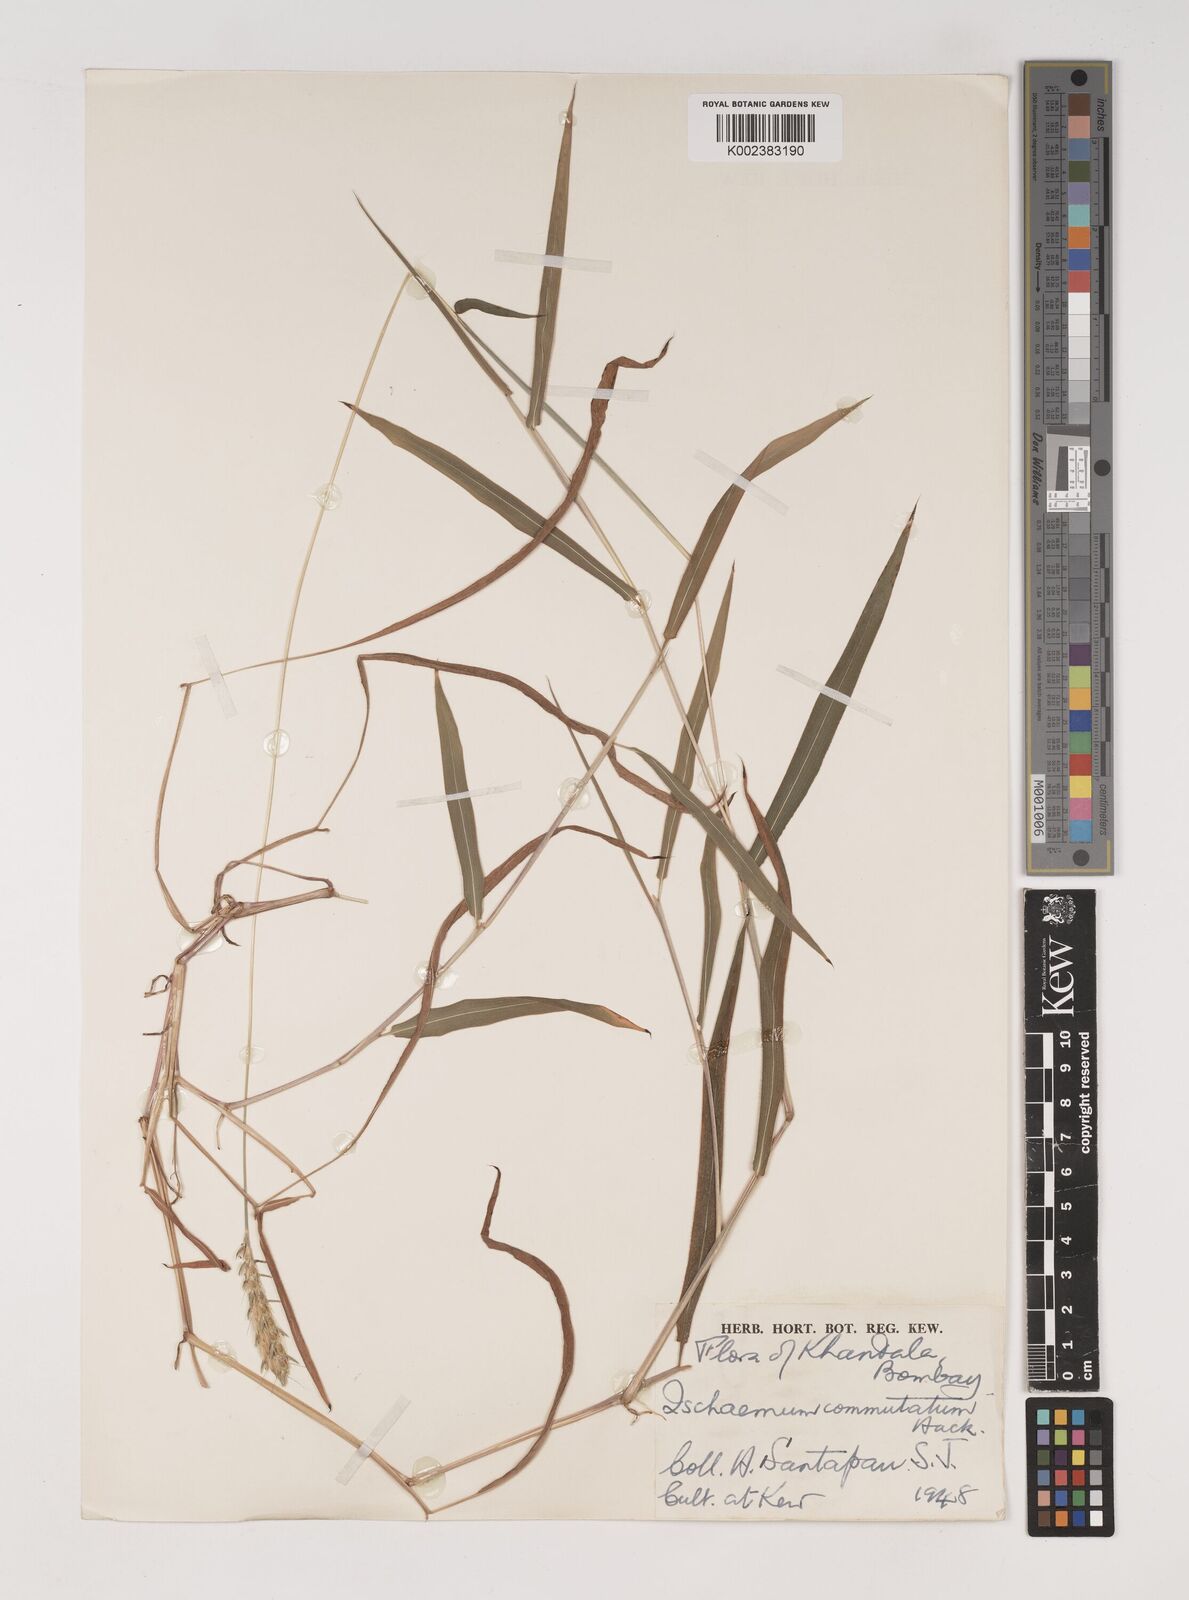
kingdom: Plantae
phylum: Tracheophyta
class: Liliopsida
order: Poales
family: Poaceae
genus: Ischaemum
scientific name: Ischaemum commutatum
